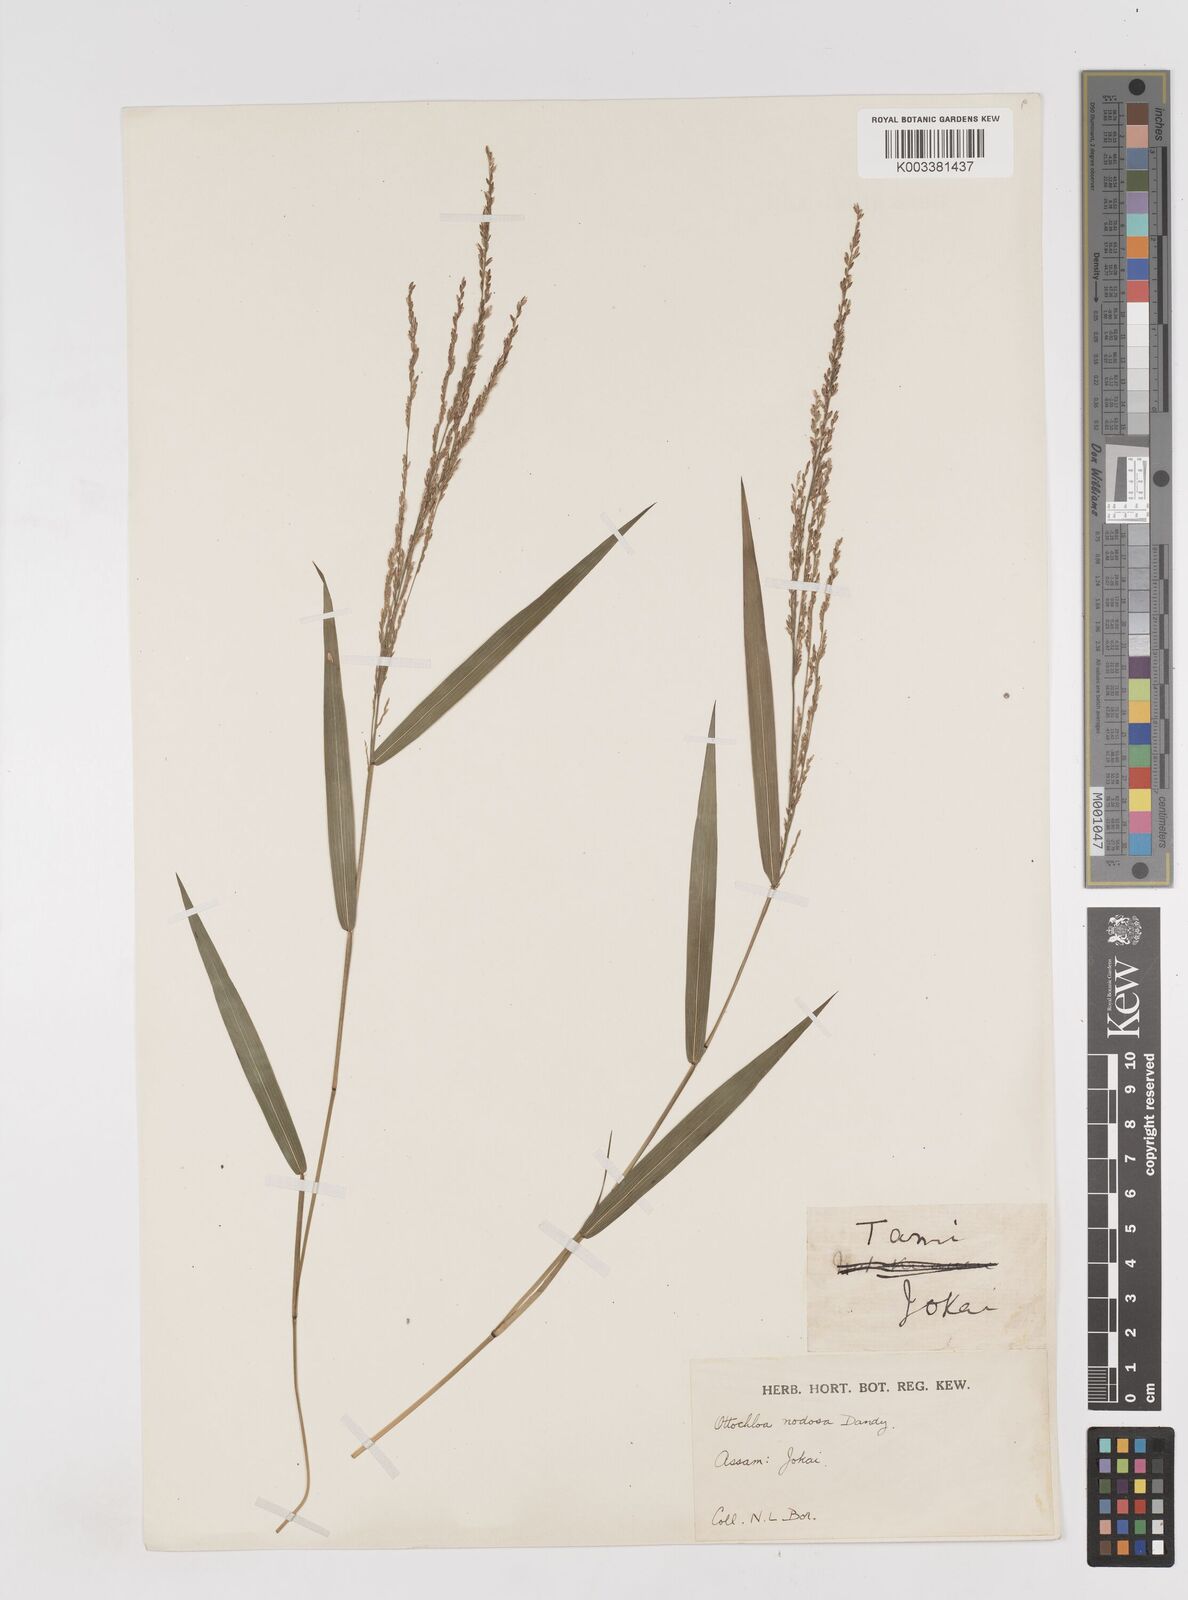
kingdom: Plantae
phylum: Tracheophyta
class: Liliopsida
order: Poales
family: Poaceae
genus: Ottochloa
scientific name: Ottochloa nodosa
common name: Slender-panic grass
